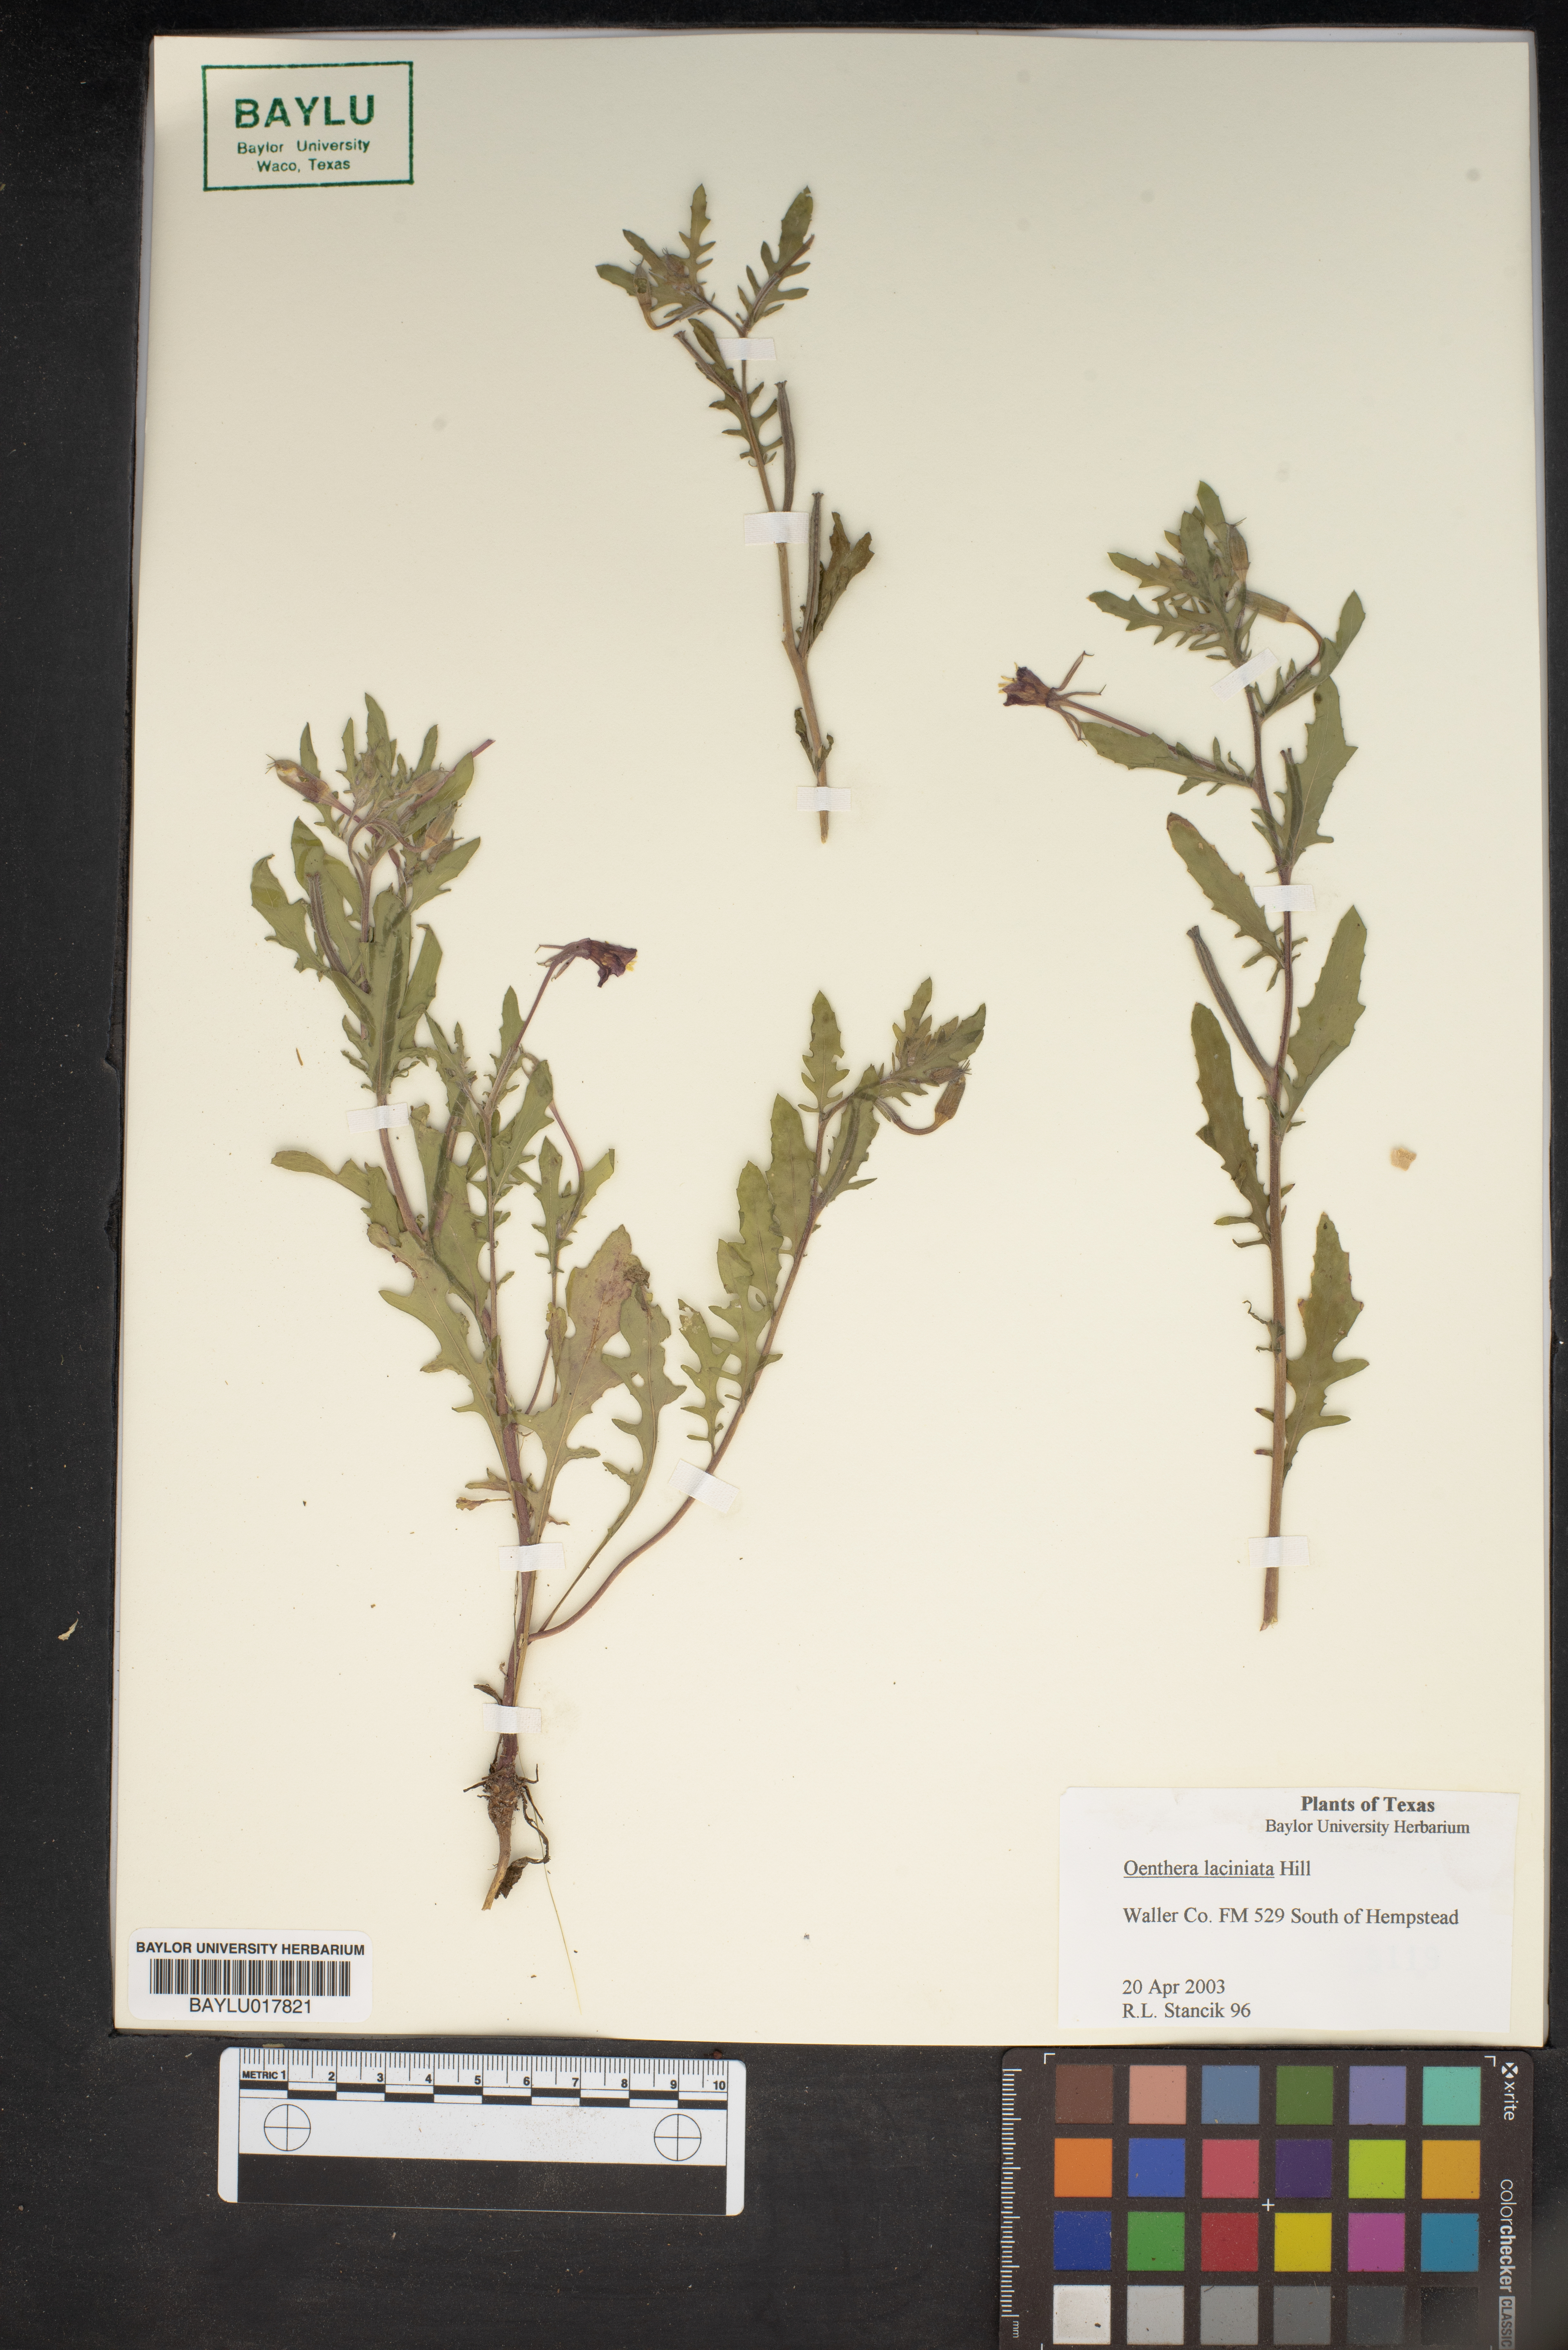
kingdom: Plantae
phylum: Tracheophyta
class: Magnoliopsida
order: Myrtales
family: Onagraceae
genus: Oenothera
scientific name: Oenothera laciniata
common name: Cut-leaved evening-primrose
